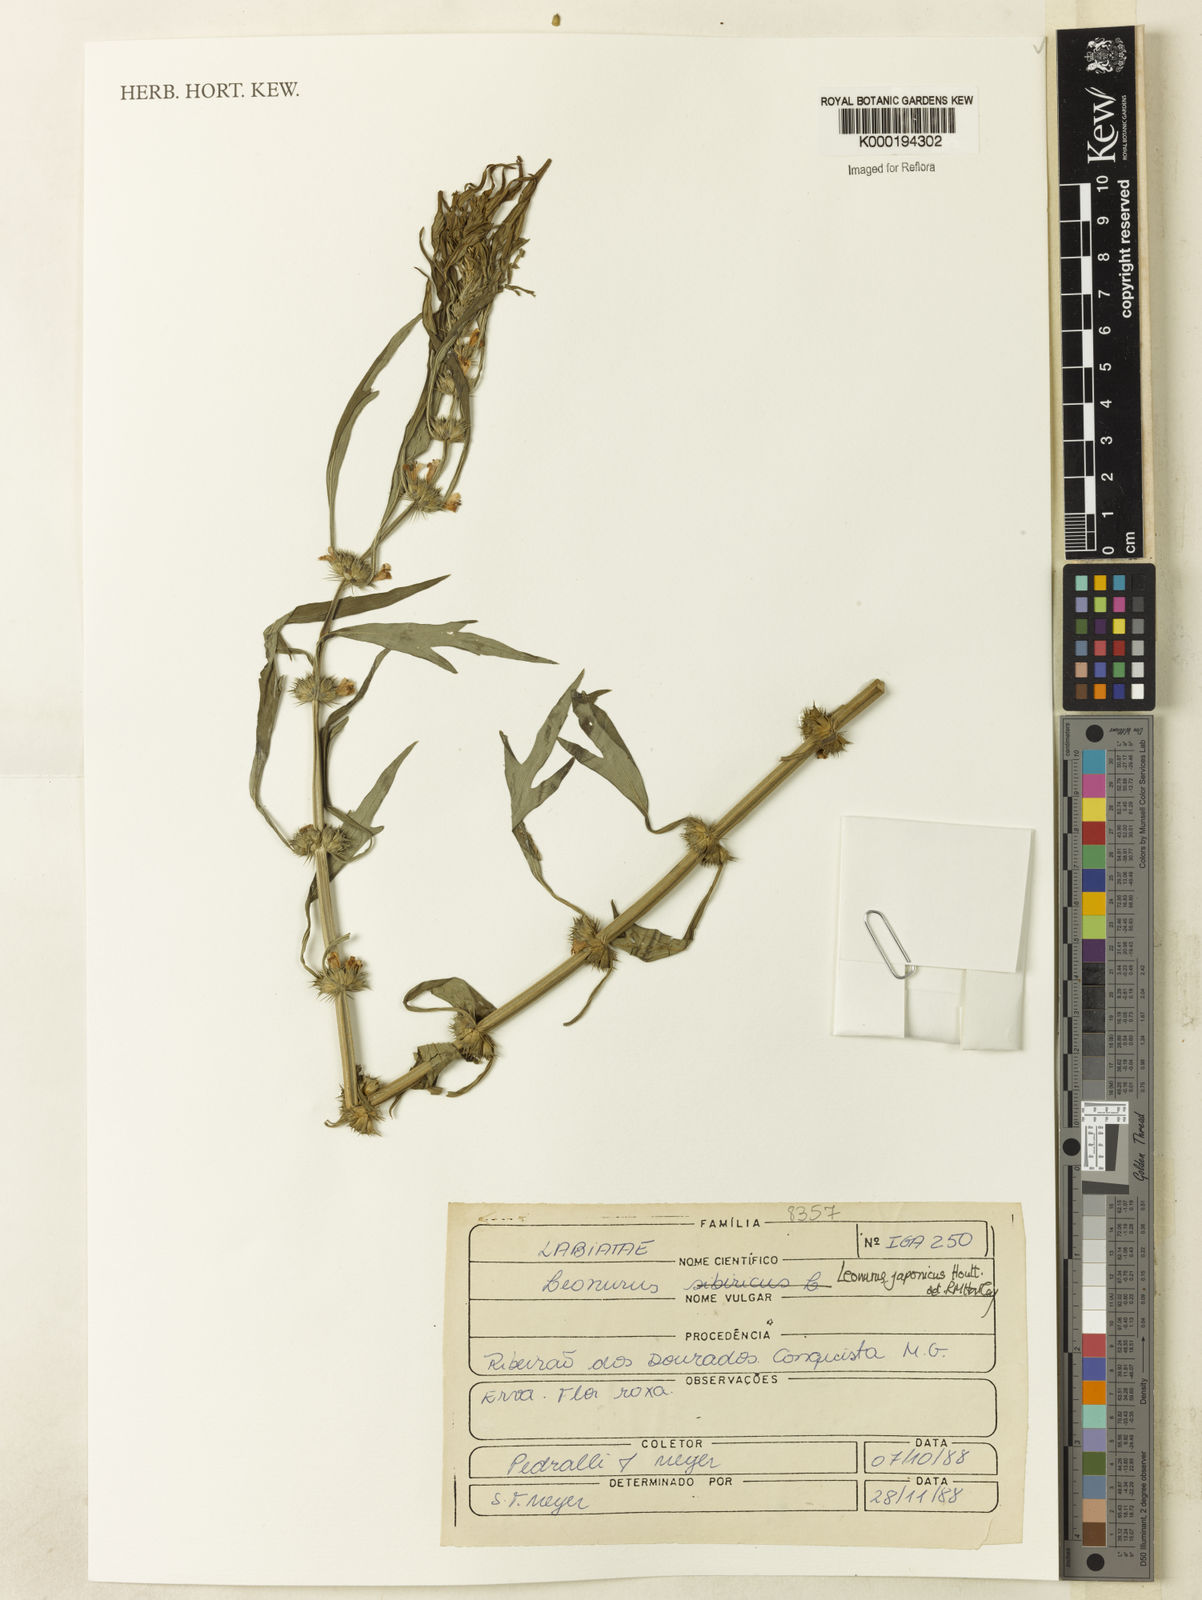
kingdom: Plantae
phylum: Tracheophyta
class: Magnoliopsida
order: Lamiales
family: Lamiaceae
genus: Leonurus
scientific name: Leonurus japonicus
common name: Honeyweed
